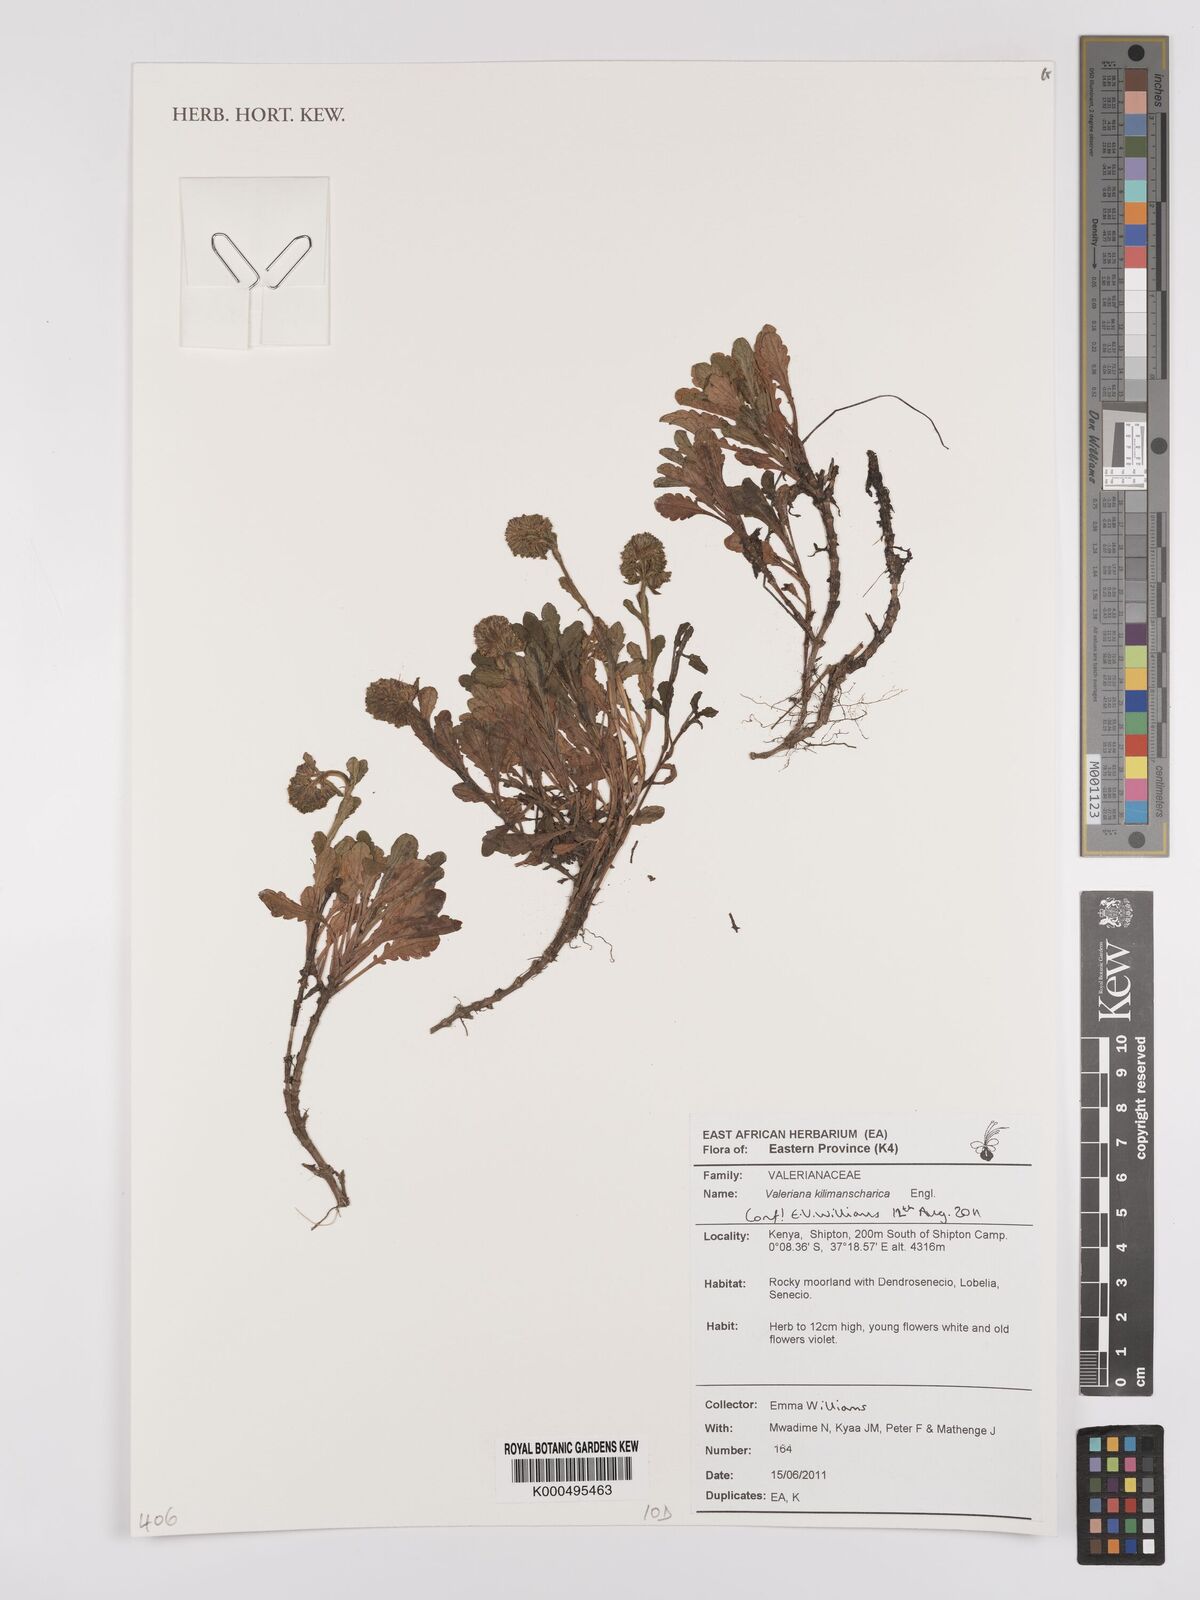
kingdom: Plantae
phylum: Tracheophyta
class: Magnoliopsida
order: Dipsacales
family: Caprifoliaceae
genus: Valeriana
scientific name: Valeriana kilimandscharica
